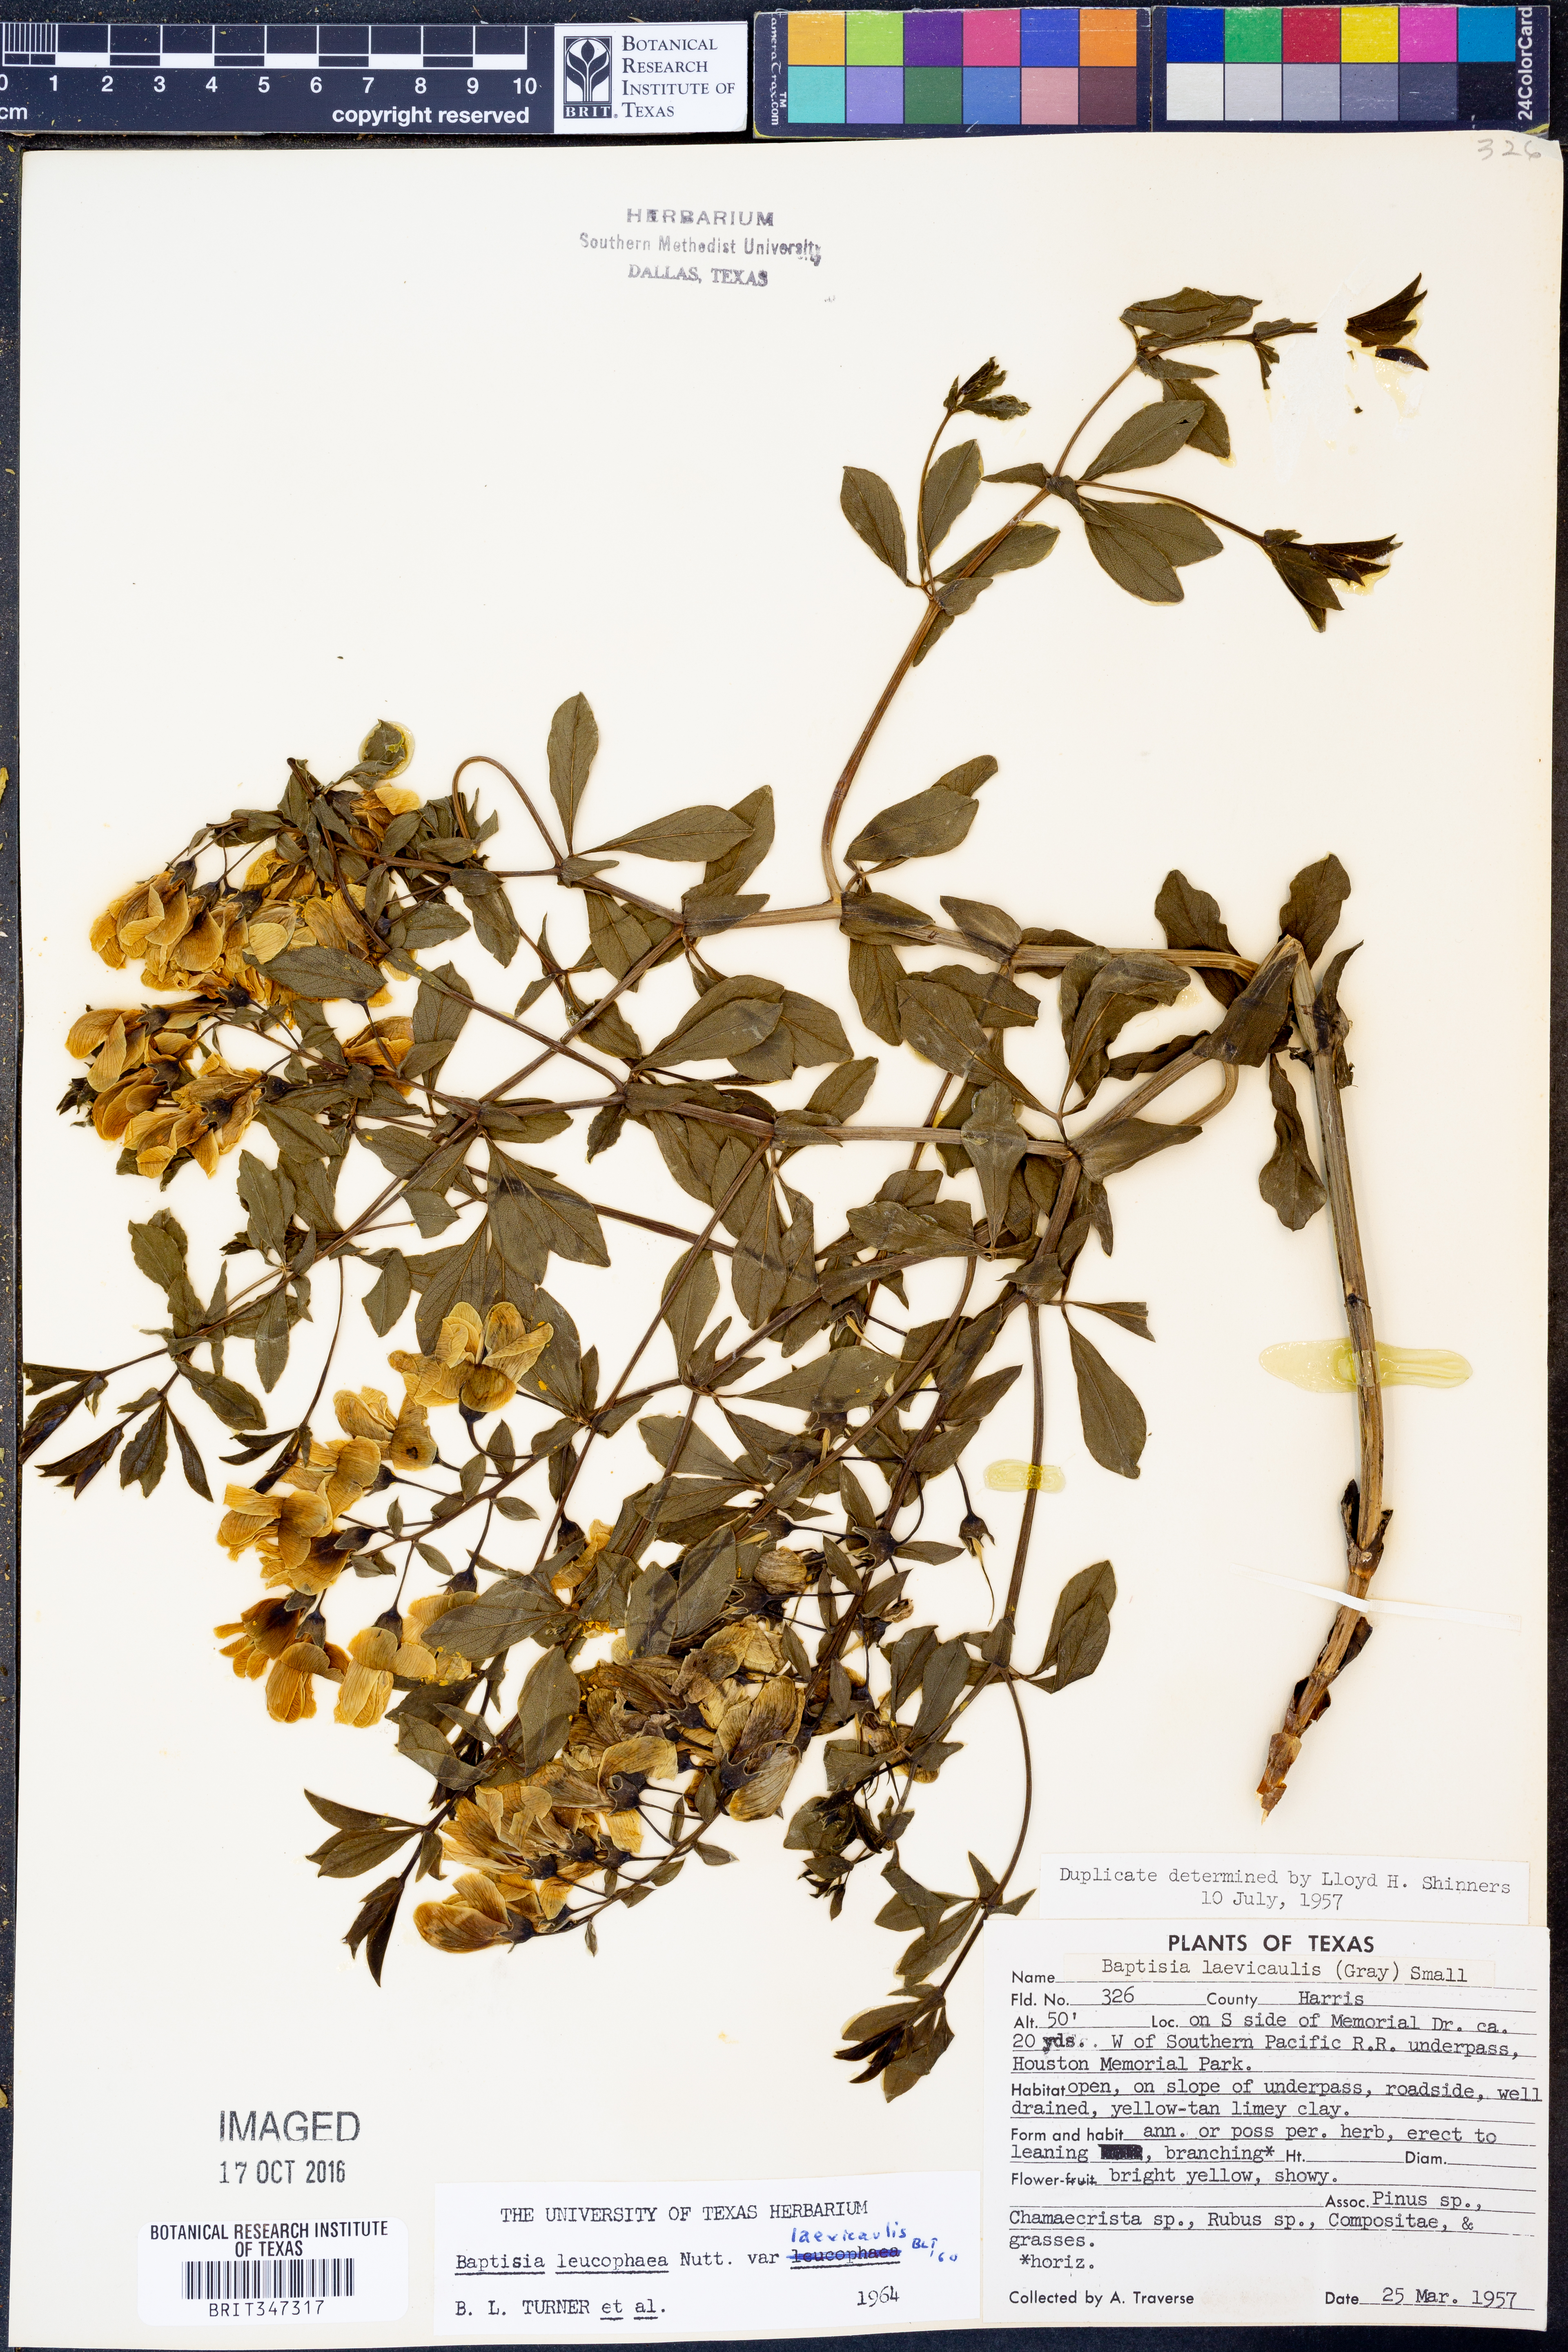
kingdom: Plantae
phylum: Tracheophyta
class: Magnoliopsida
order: Fabales
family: Fabaceae
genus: Baptisia
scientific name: Baptisia bracteata
